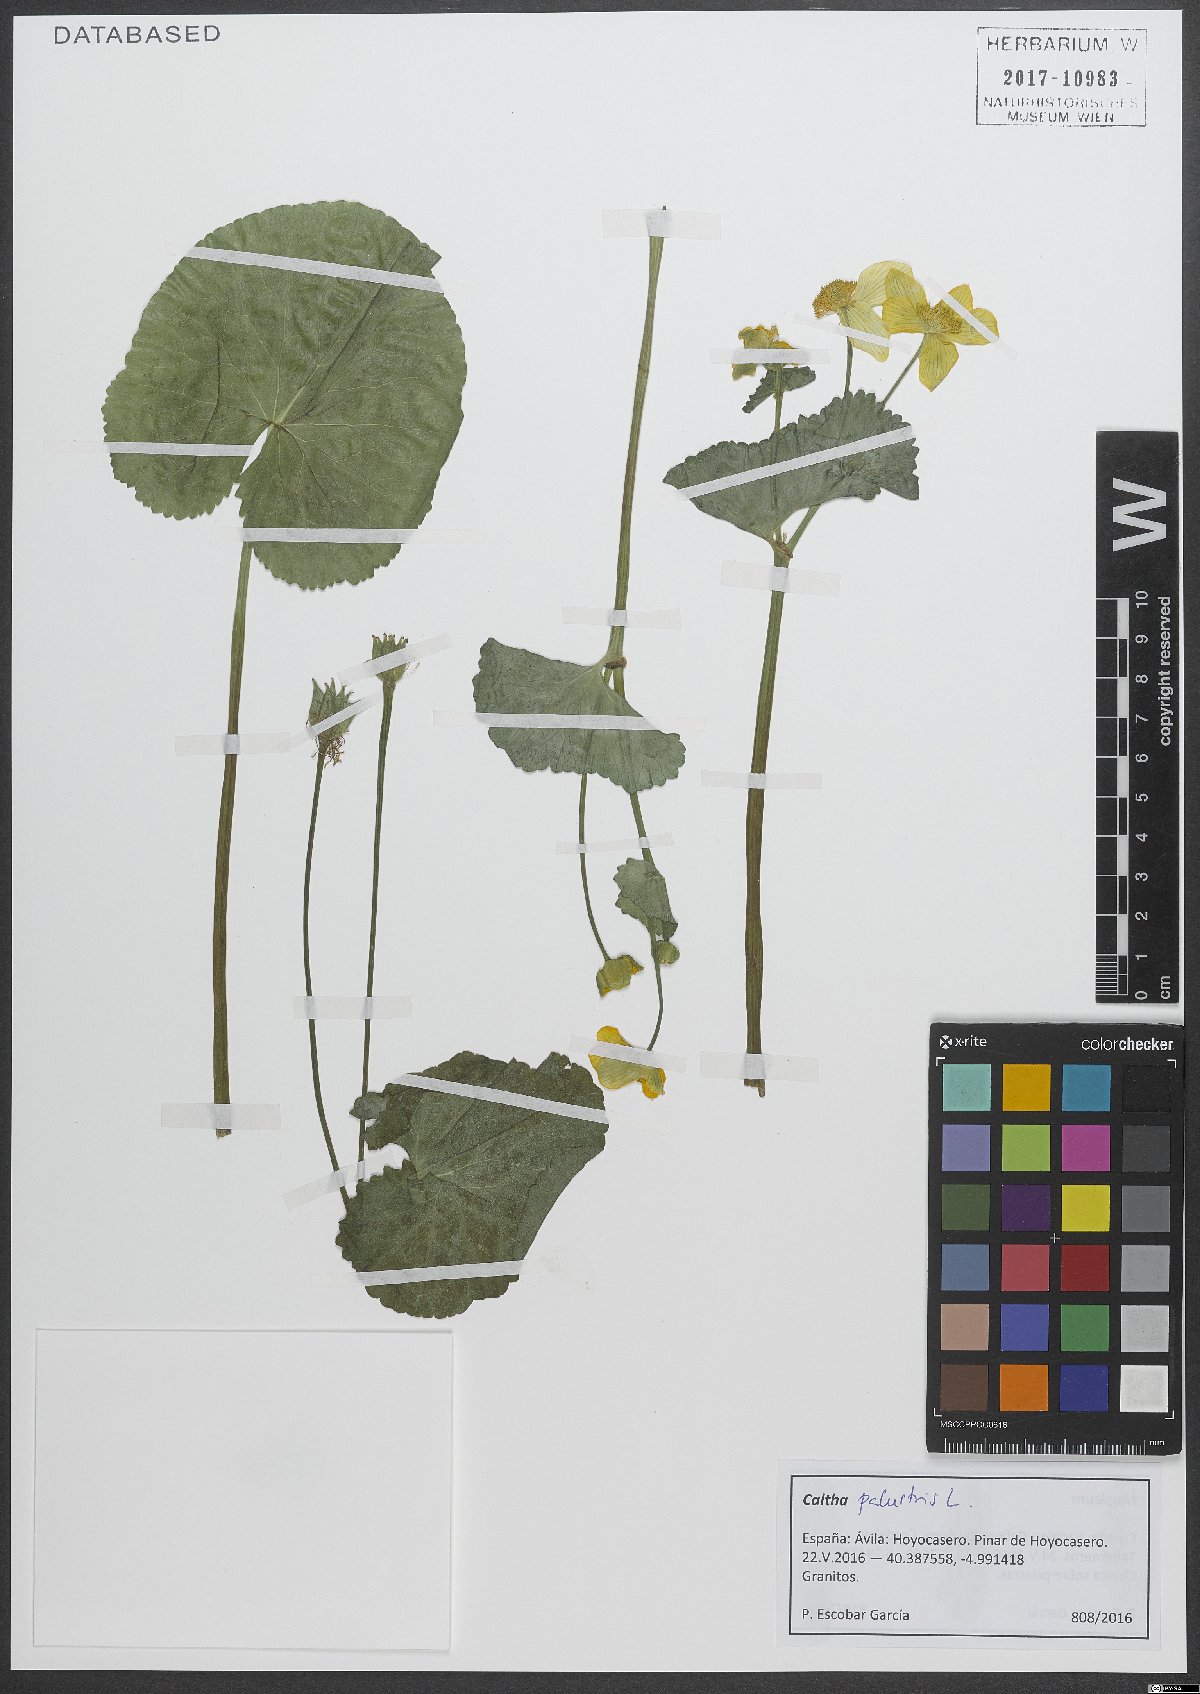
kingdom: Plantae
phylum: Tracheophyta
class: Magnoliopsida
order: Ranunculales
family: Ranunculaceae
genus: Caltha
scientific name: Caltha palustris
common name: Marsh marigold
